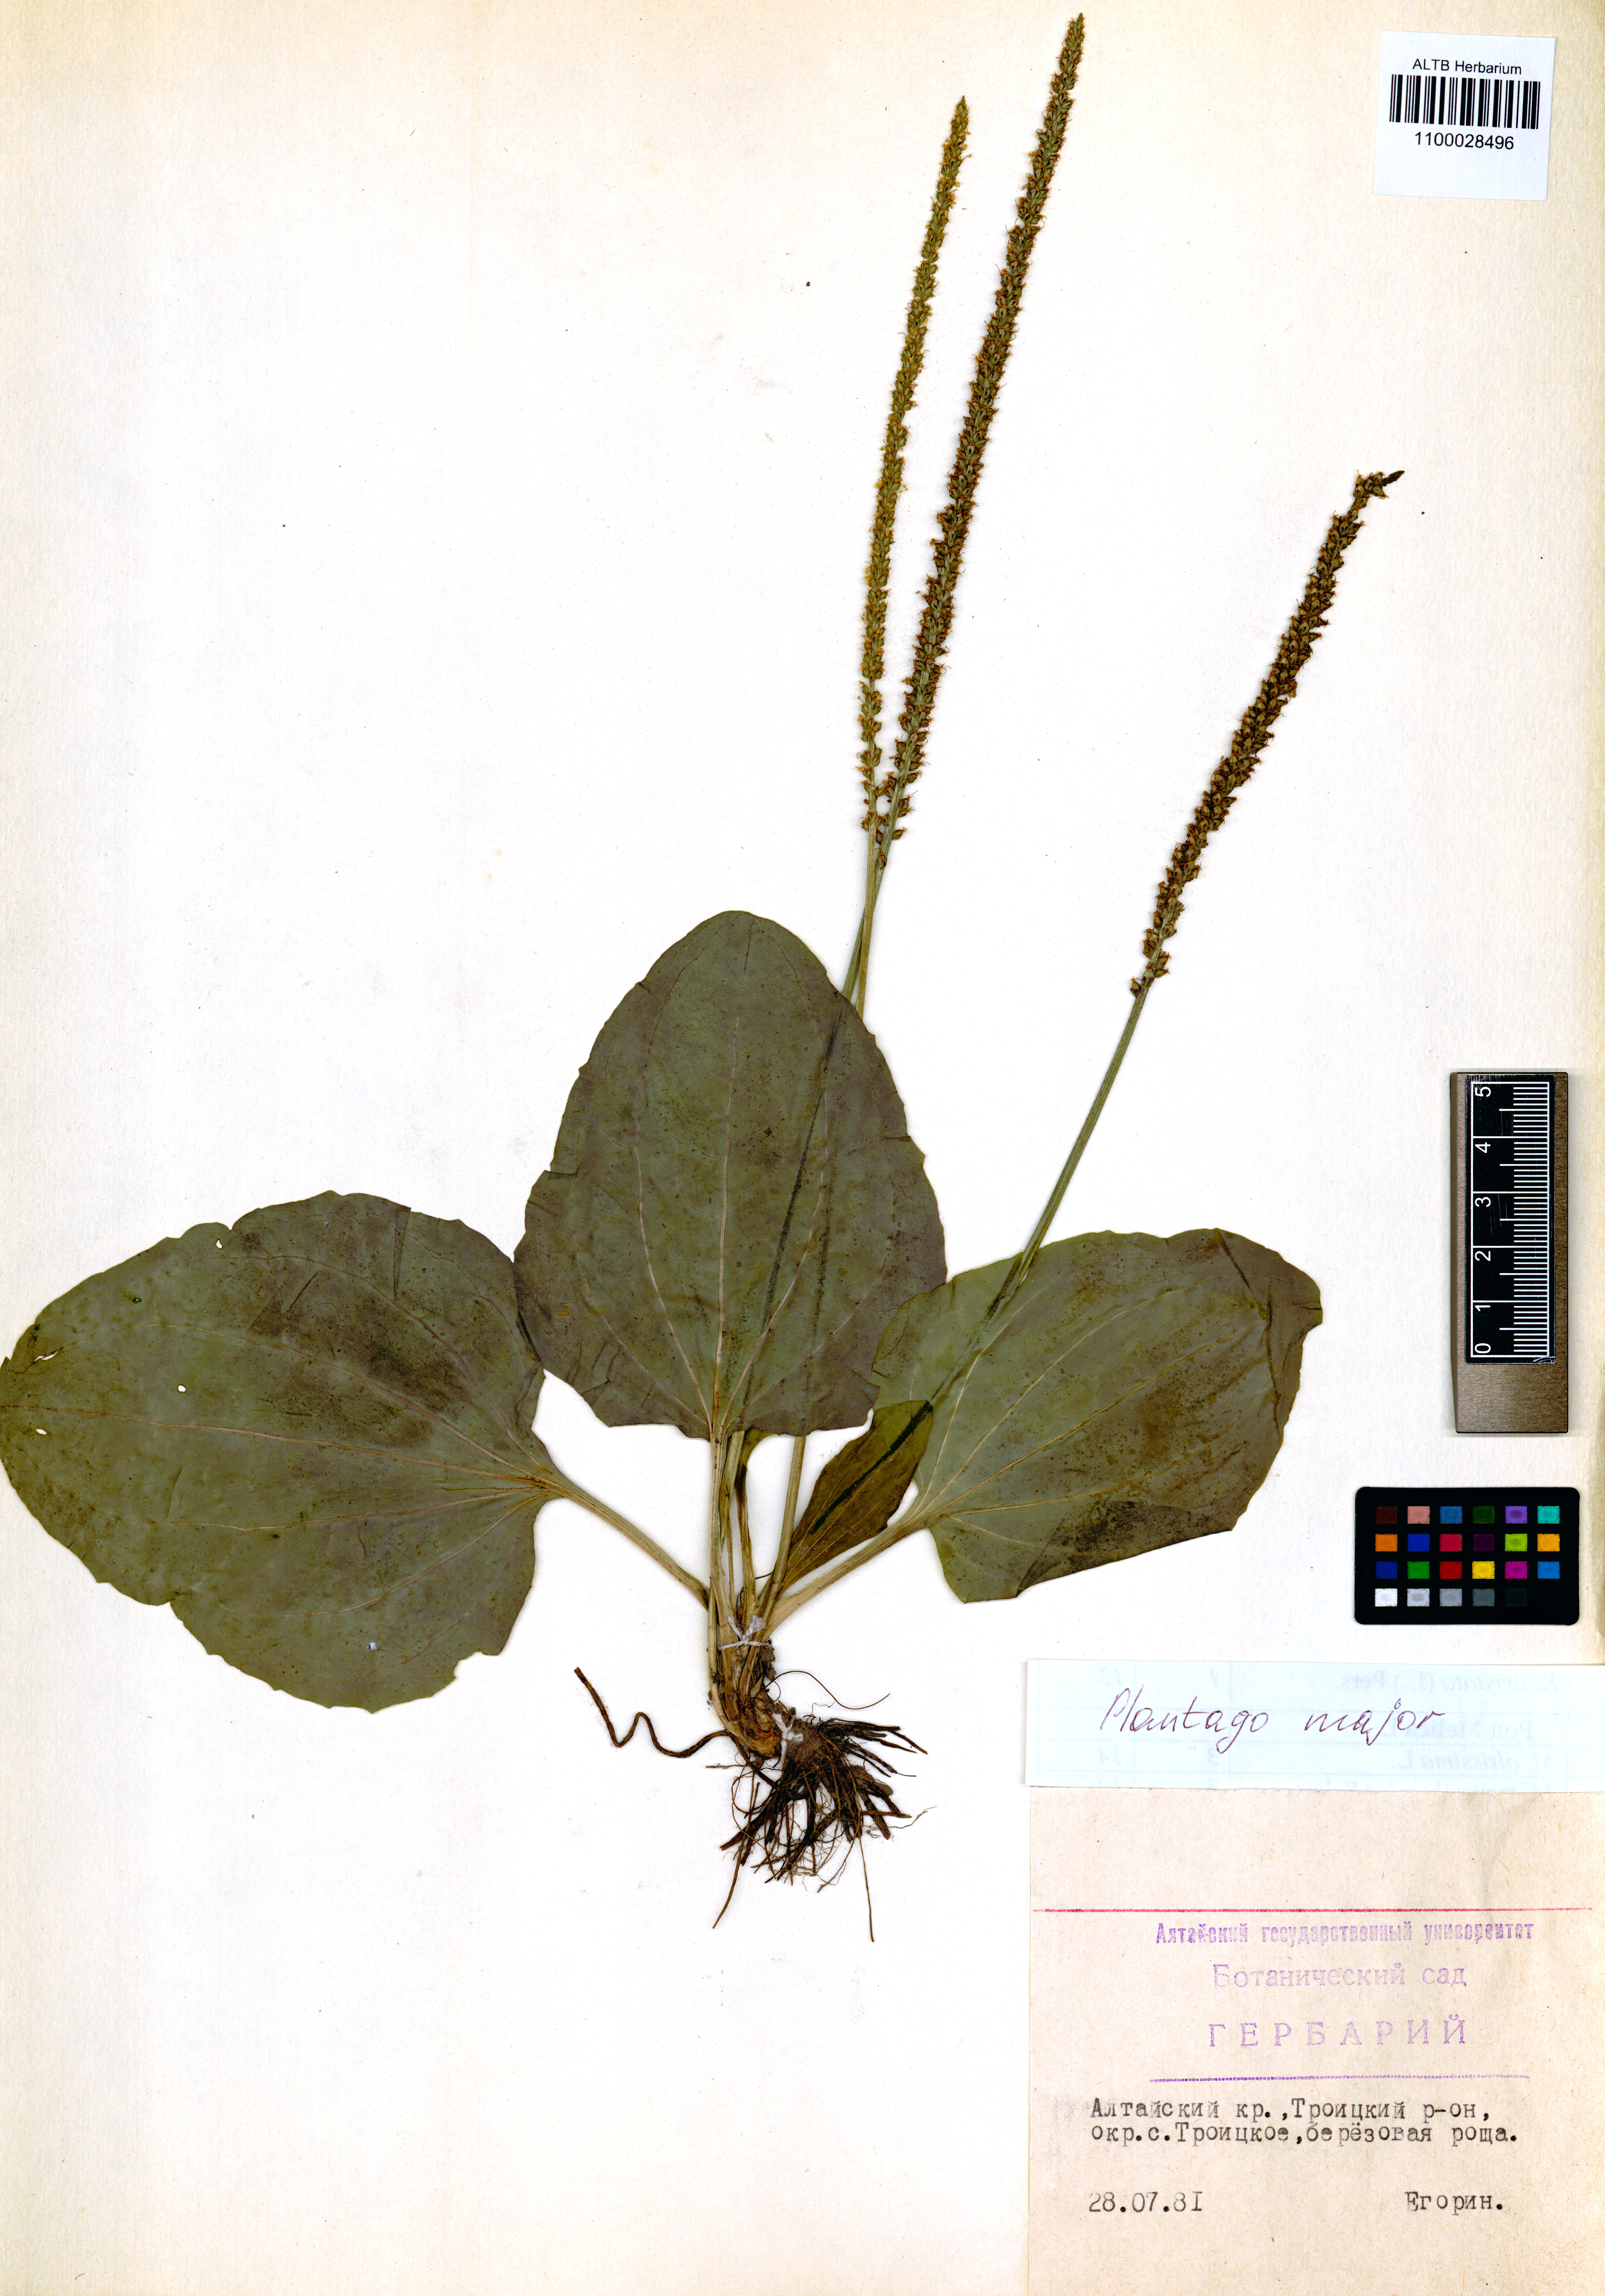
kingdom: Plantae
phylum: Tracheophyta
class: Magnoliopsida
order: Lamiales
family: Plantaginaceae
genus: Plantago
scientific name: Plantago major
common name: Common plantain
